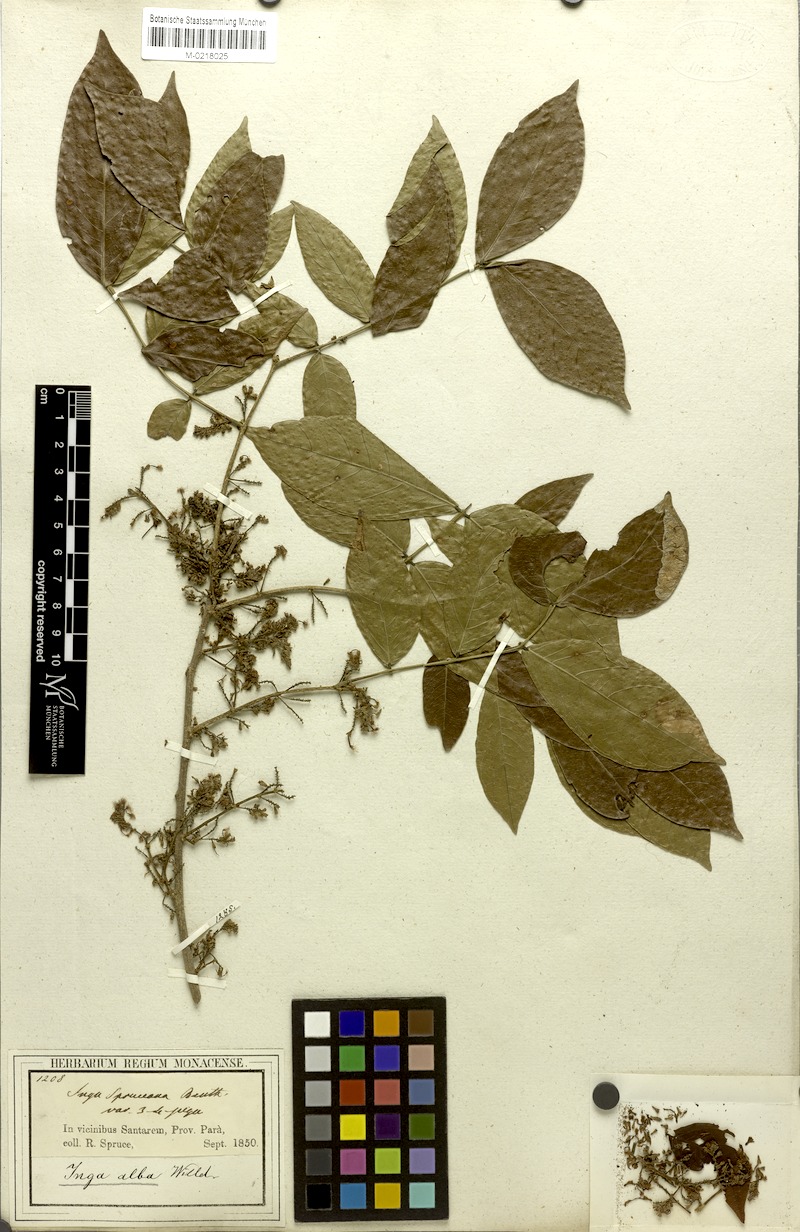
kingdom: Plantae
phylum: Tracheophyta
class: Magnoliopsida
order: Fabales
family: Fabaceae
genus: Inga
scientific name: Inga alba
